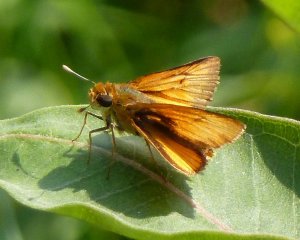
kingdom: Animalia
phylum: Arthropoda
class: Insecta
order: Lepidoptera
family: Hesperiidae
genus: Atrytone
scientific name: Atrytone delaware
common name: Delaware Skipper
